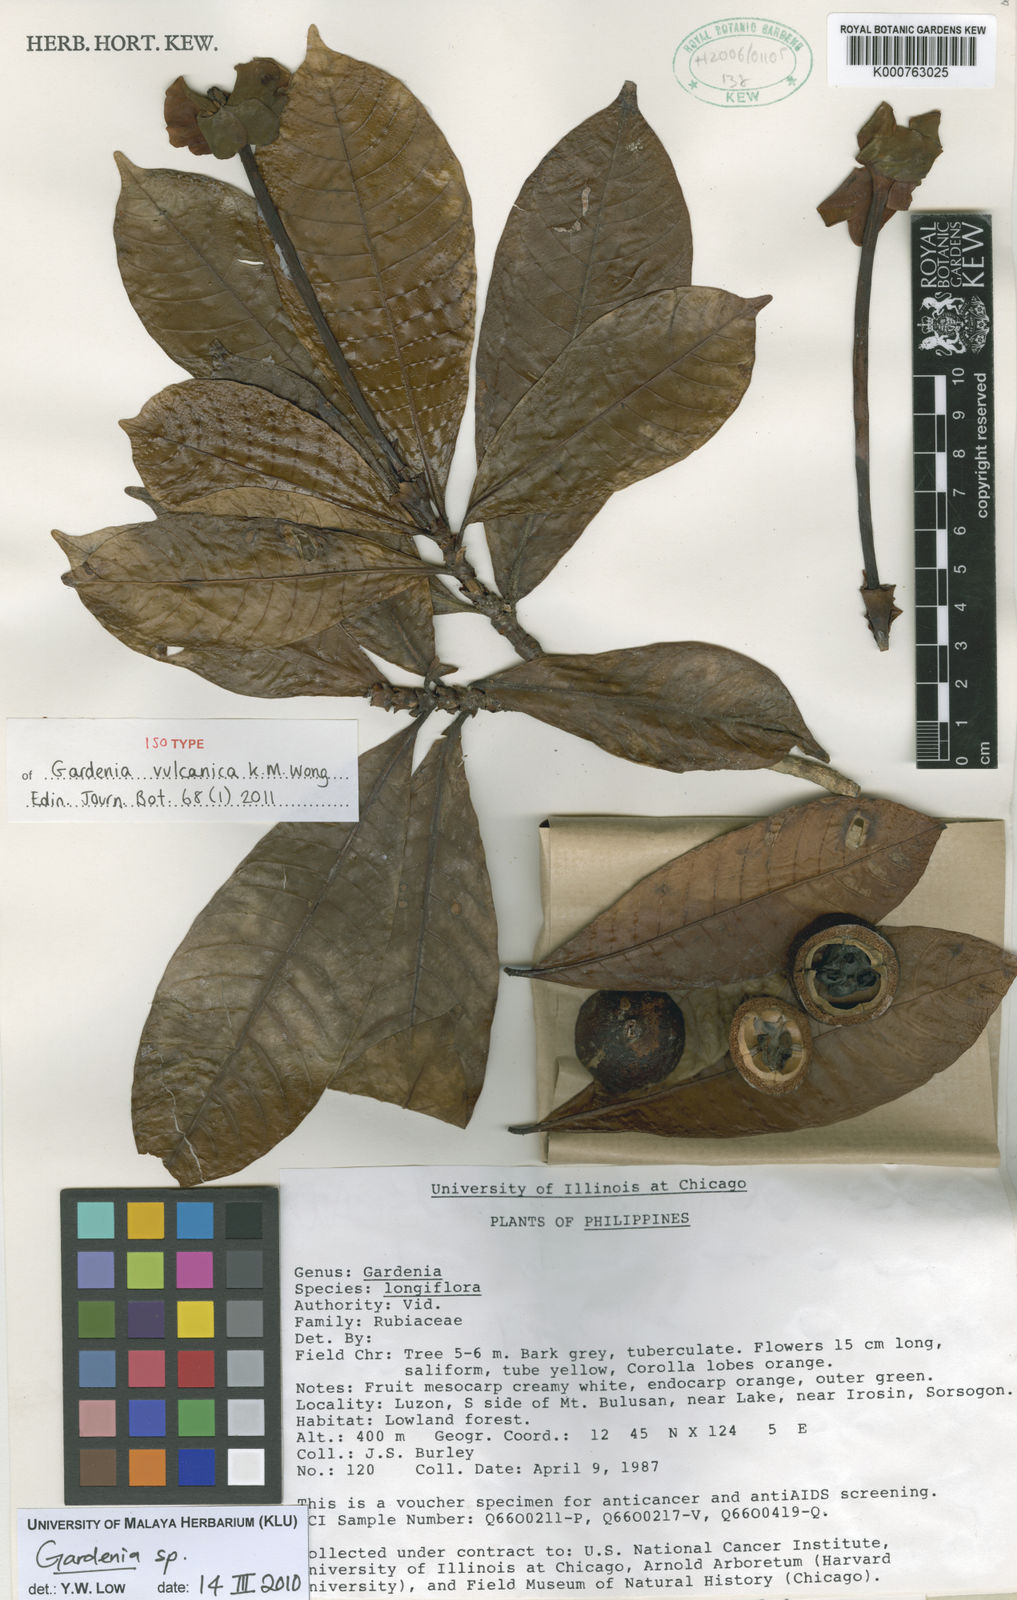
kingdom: Plantae
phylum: Tracheophyta
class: Magnoliopsida
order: Gentianales
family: Rubiaceae
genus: Gardenia
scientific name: Gardenia vulcanica
